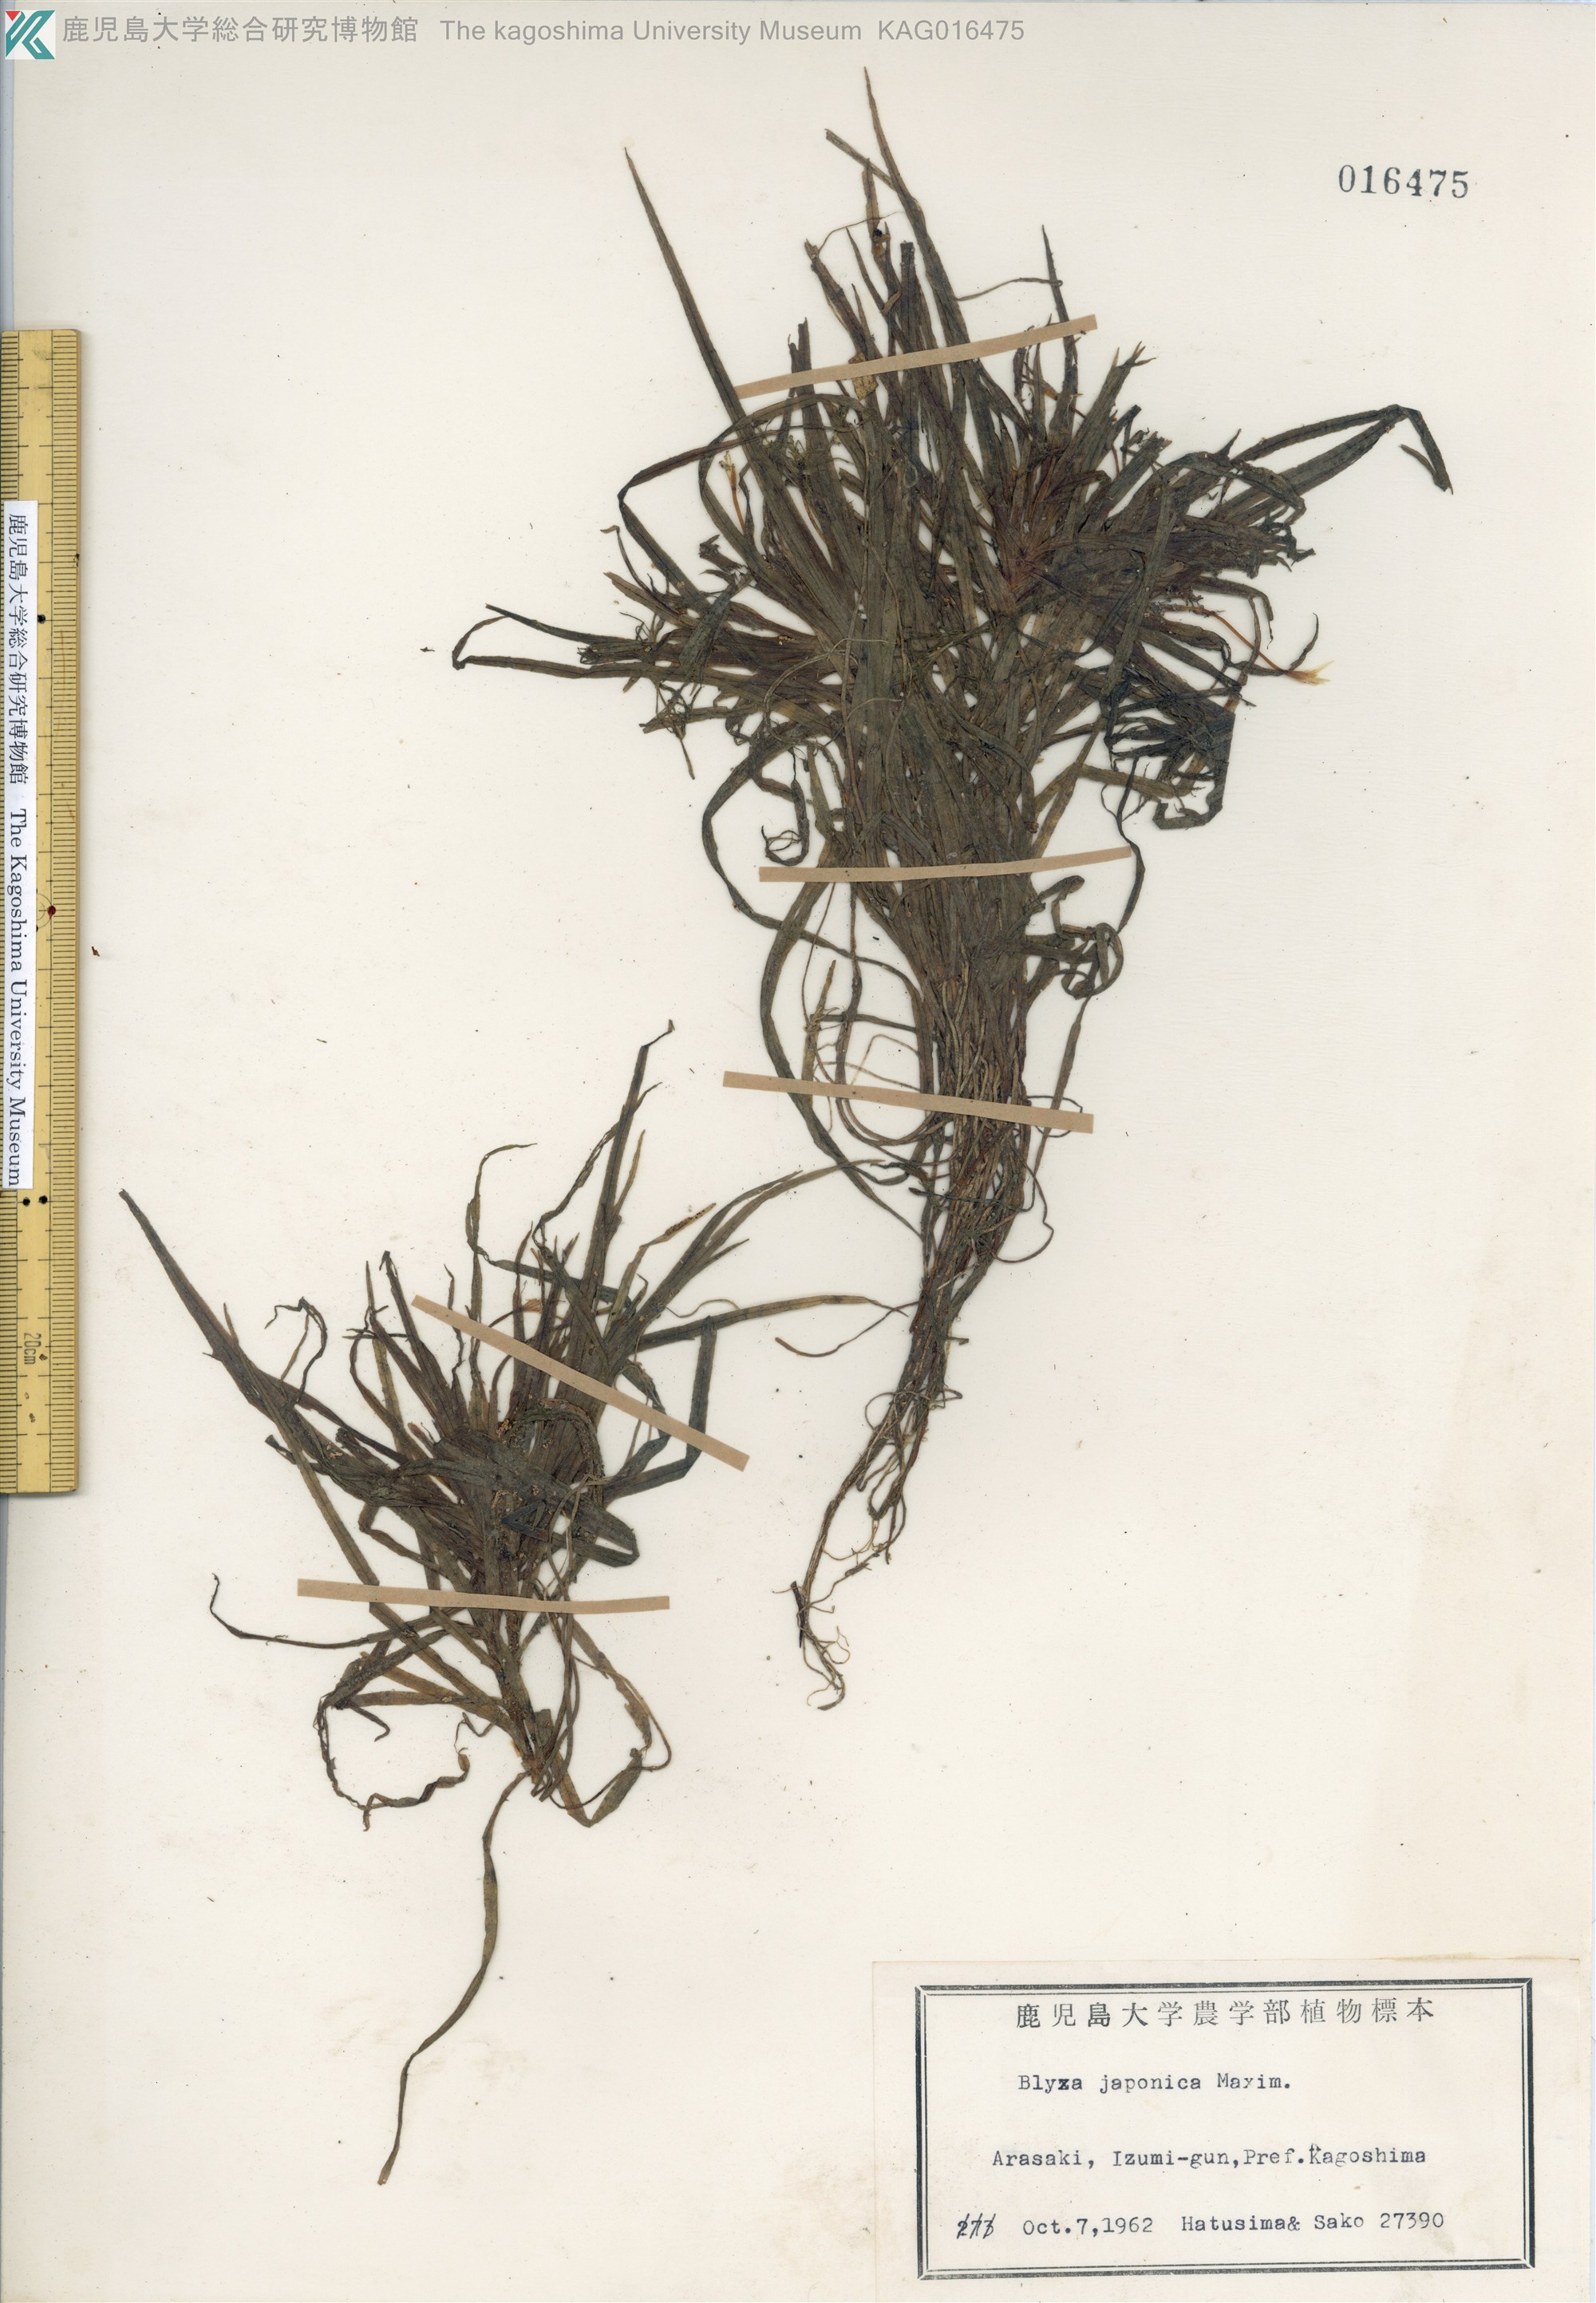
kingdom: Plantae
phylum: Tracheophyta
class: Liliopsida
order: Alismatales
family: Hydrocharitaceae
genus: Blyxa
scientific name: Blyxa japonica
